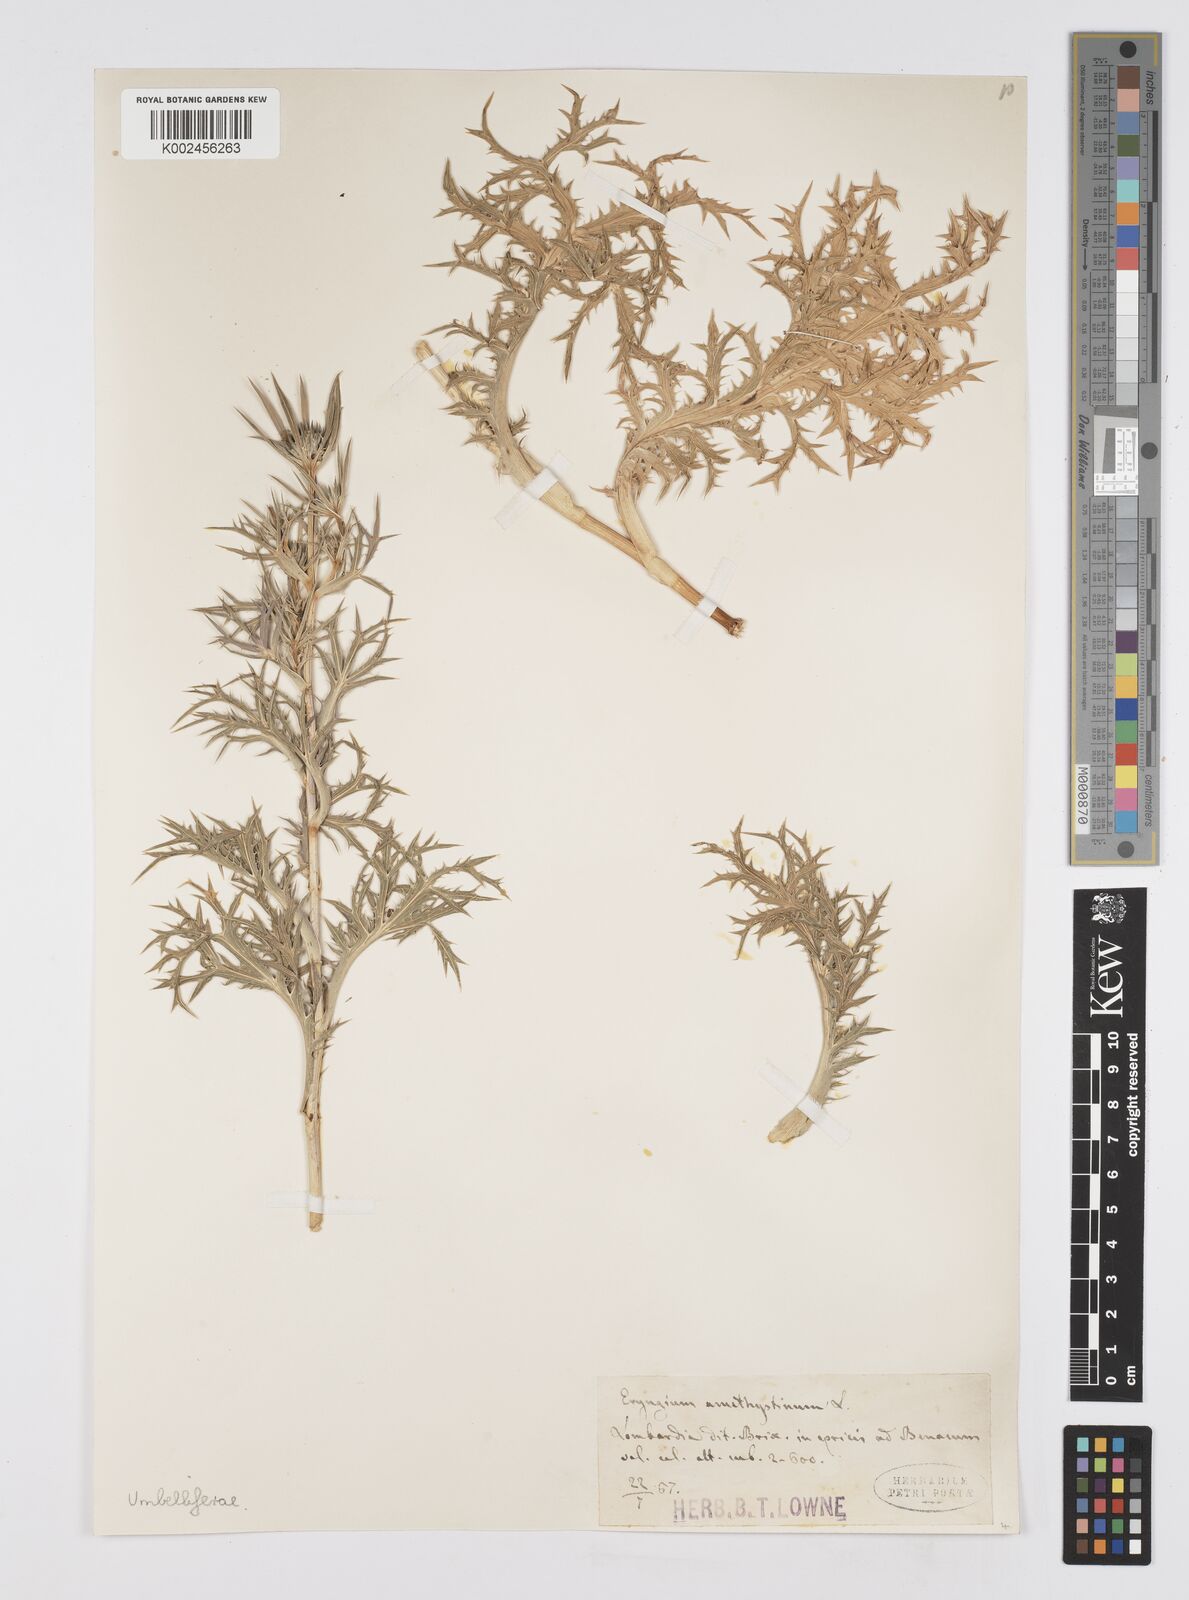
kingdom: Plantae
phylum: Tracheophyta
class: Magnoliopsida
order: Apiales
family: Apiaceae
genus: Eryngium
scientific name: Eryngium amethystinum
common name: Amethyst eryngo
